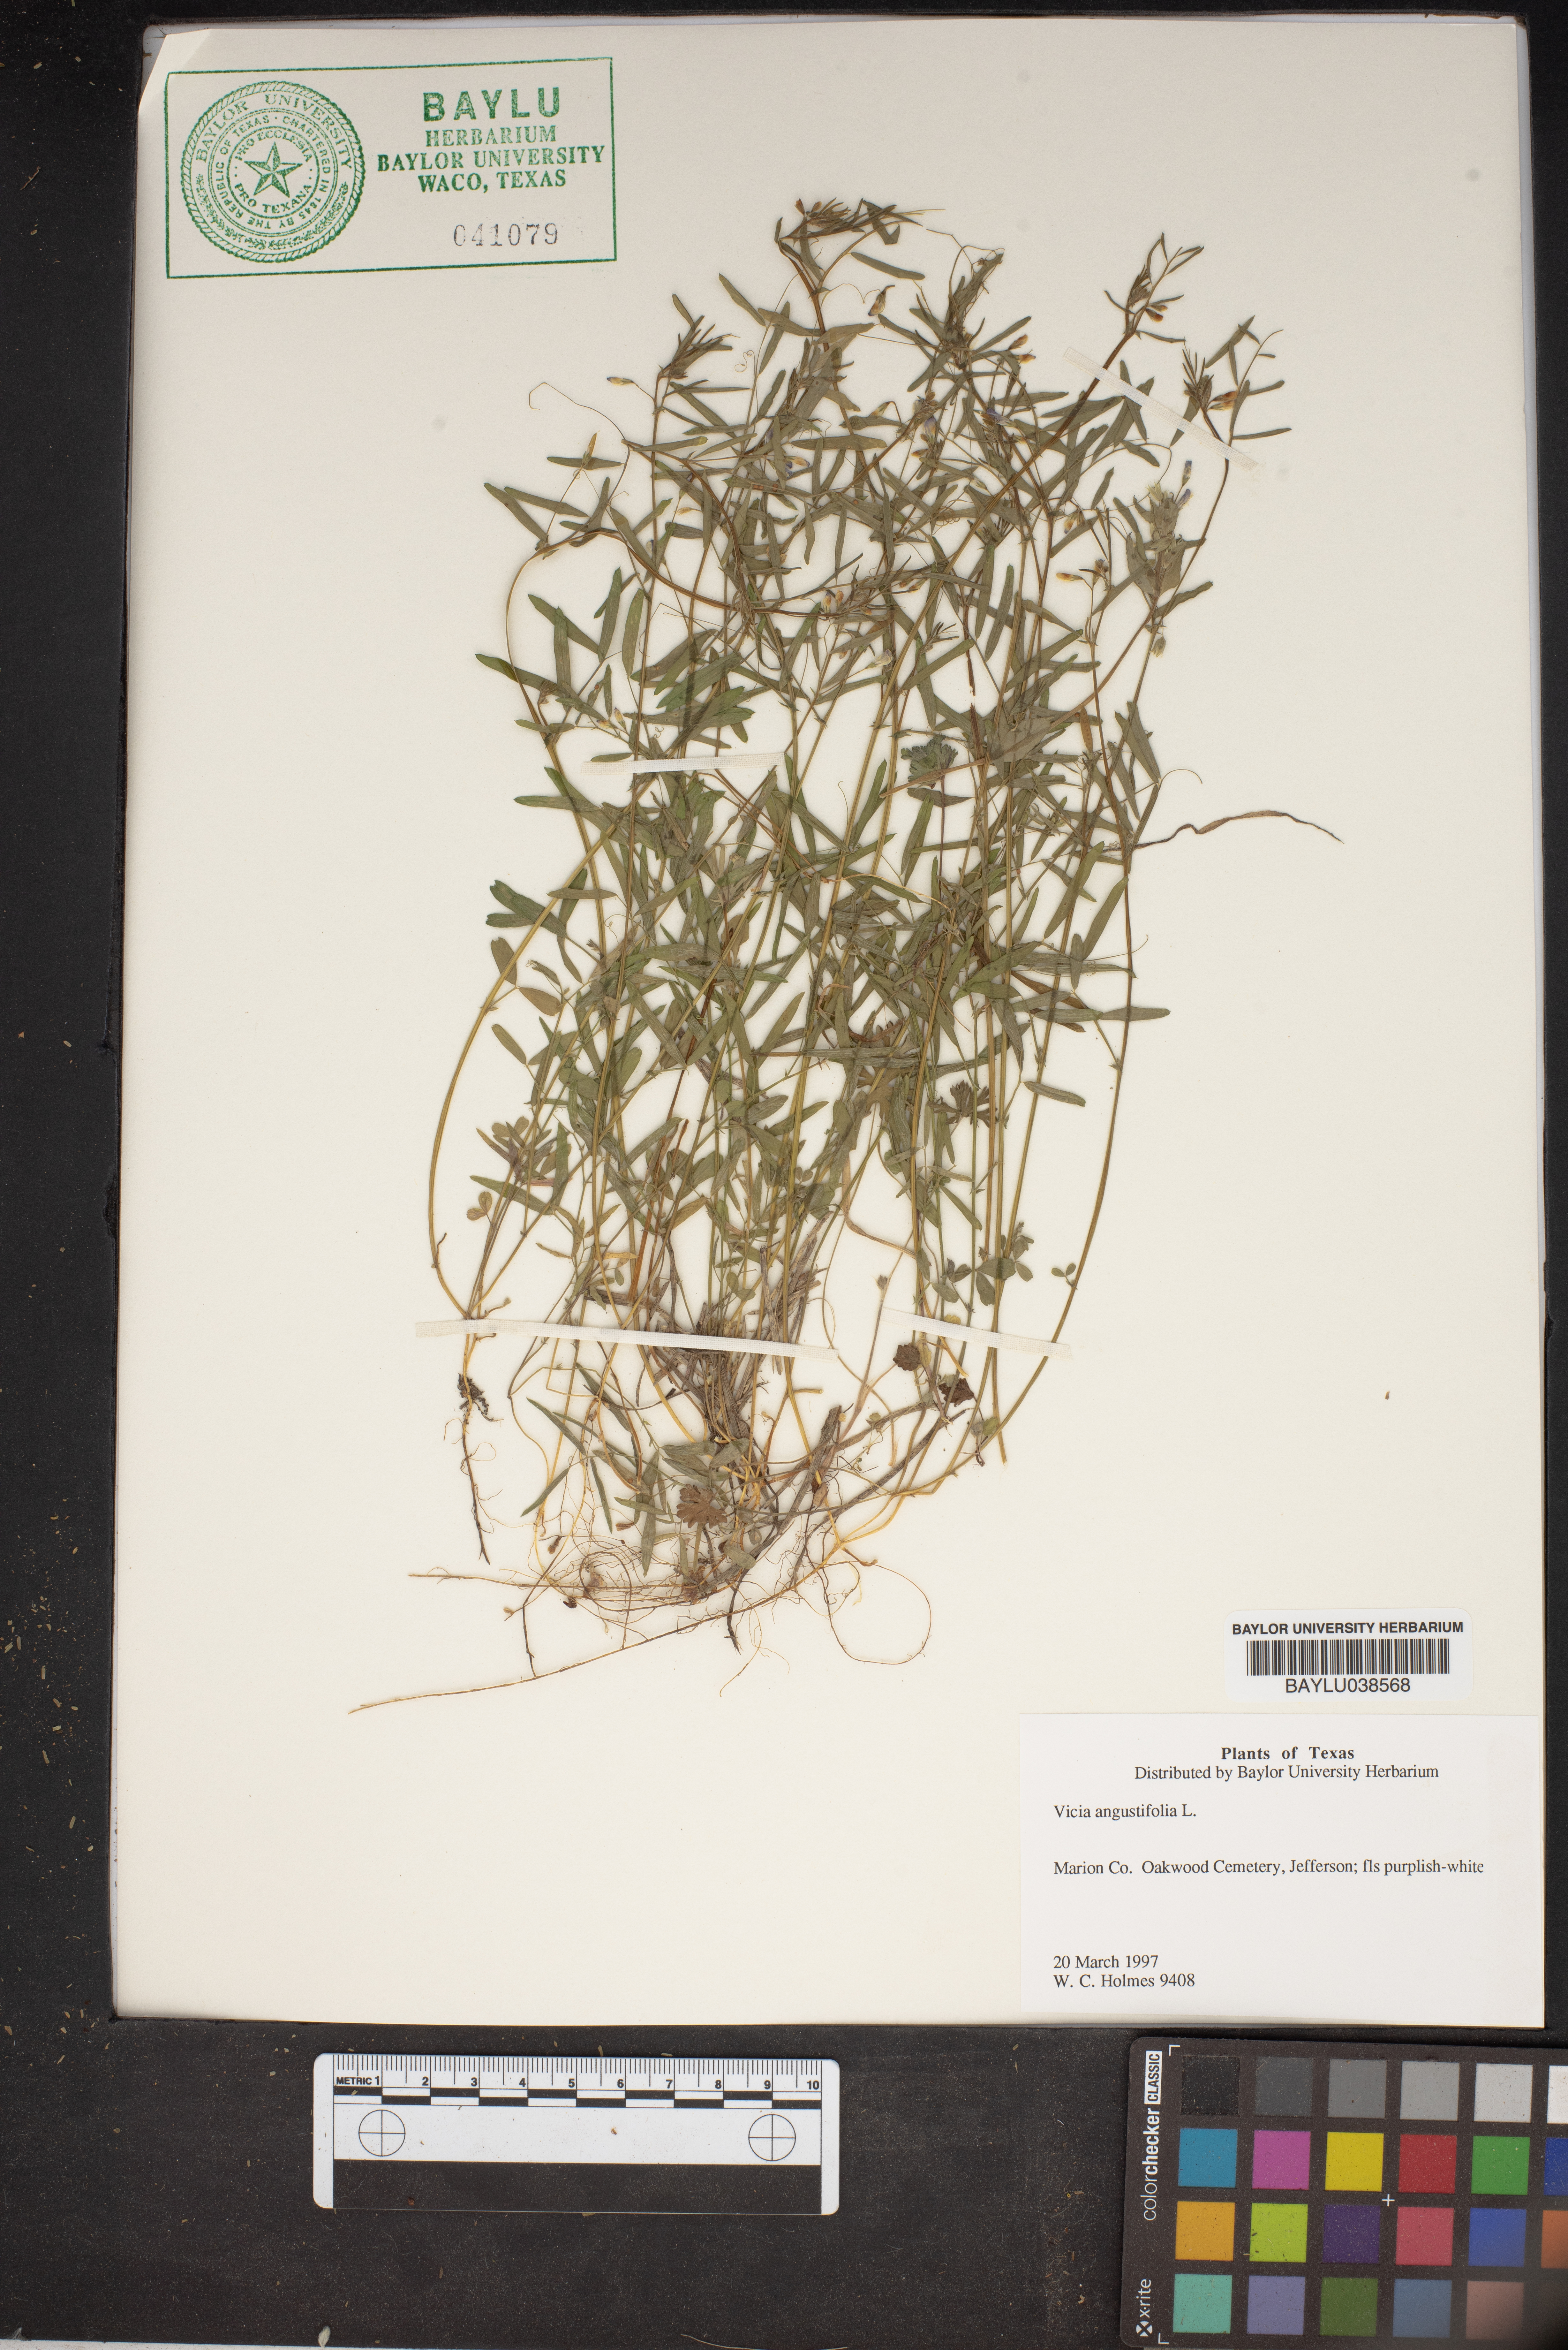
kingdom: Plantae
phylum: Tracheophyta
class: Magnoliopsida
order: Fabales
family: Fabaceae
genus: Vicia
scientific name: Vicia sativa
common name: Garden vetch
